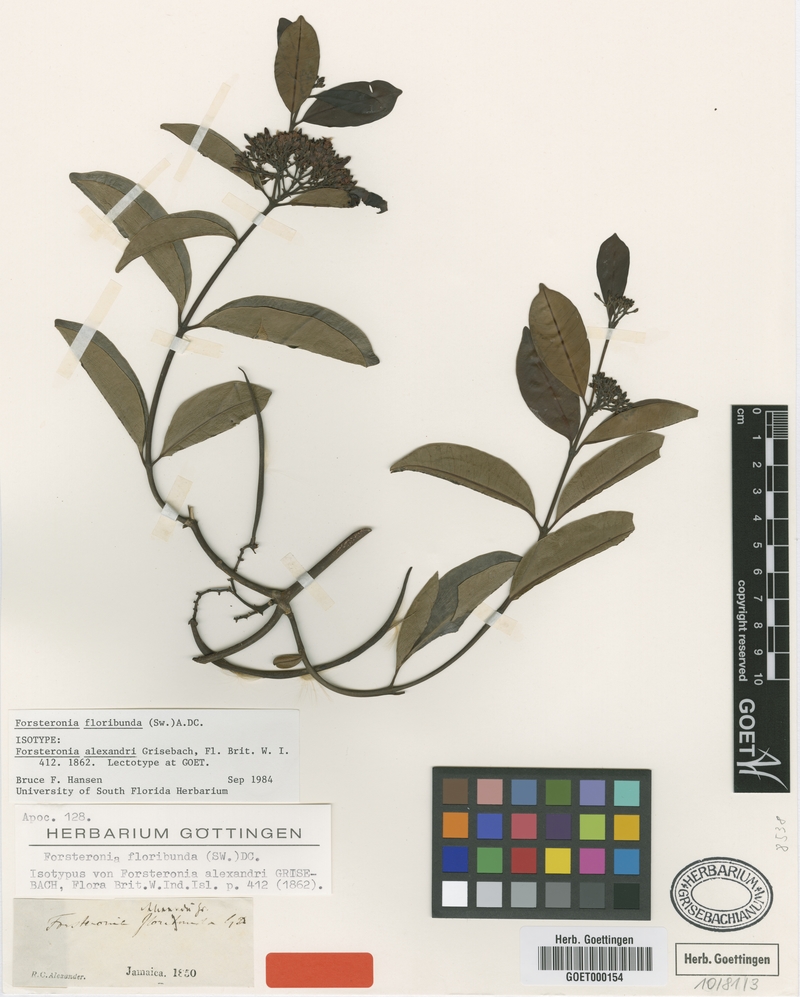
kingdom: Plantae
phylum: Tracheophyta
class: Magnoliopsida
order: Gentianales
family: Apocynaceae
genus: Pinochia
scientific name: Pinochia floribunda
